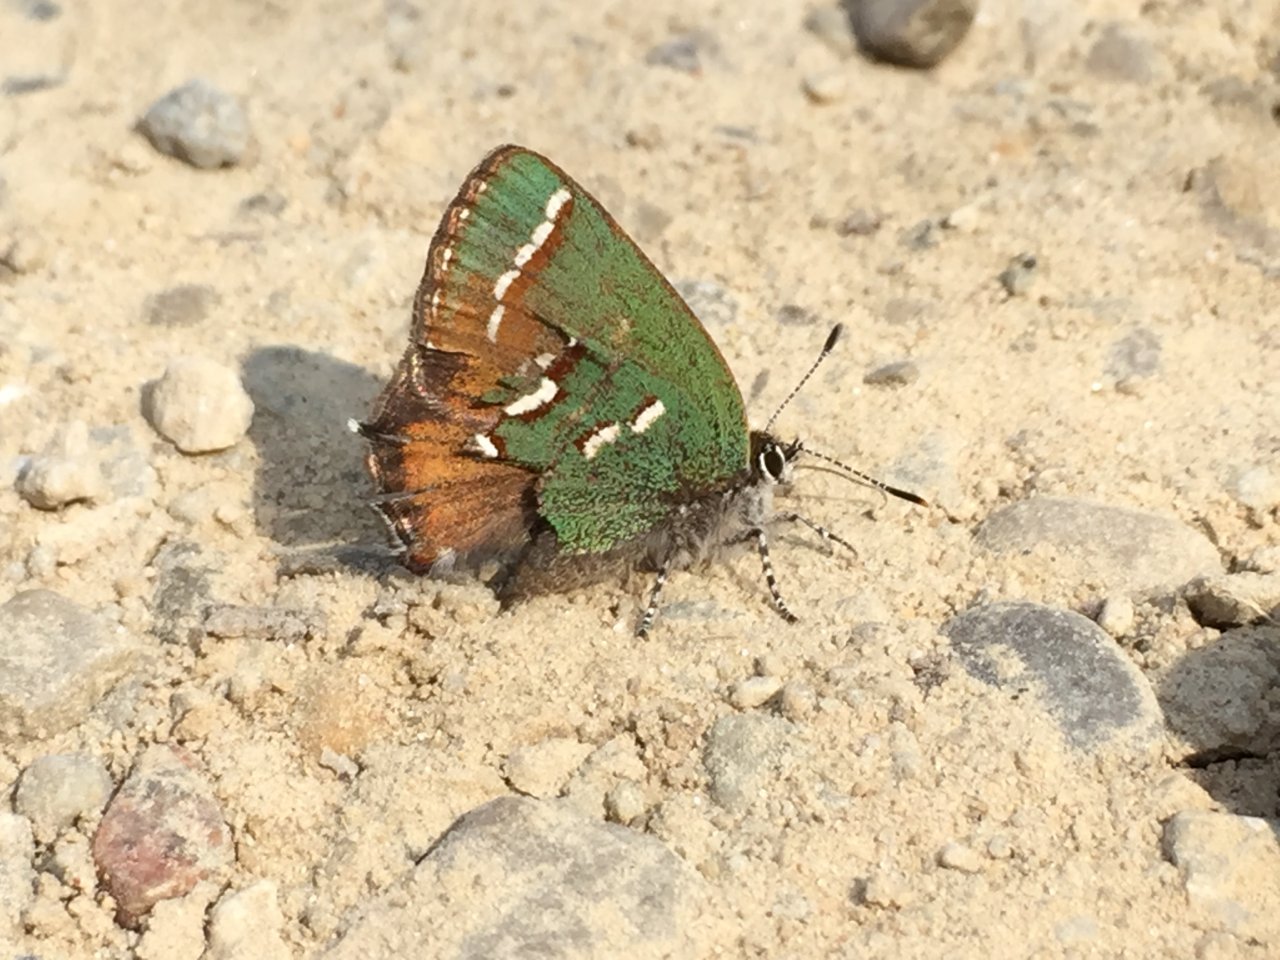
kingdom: Animalia
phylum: Arthropoda
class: Insecta
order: Lepidoptera
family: Lycaenidae
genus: Mitoura
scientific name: Mitoura gryneus
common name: Juniper Hairstreak
